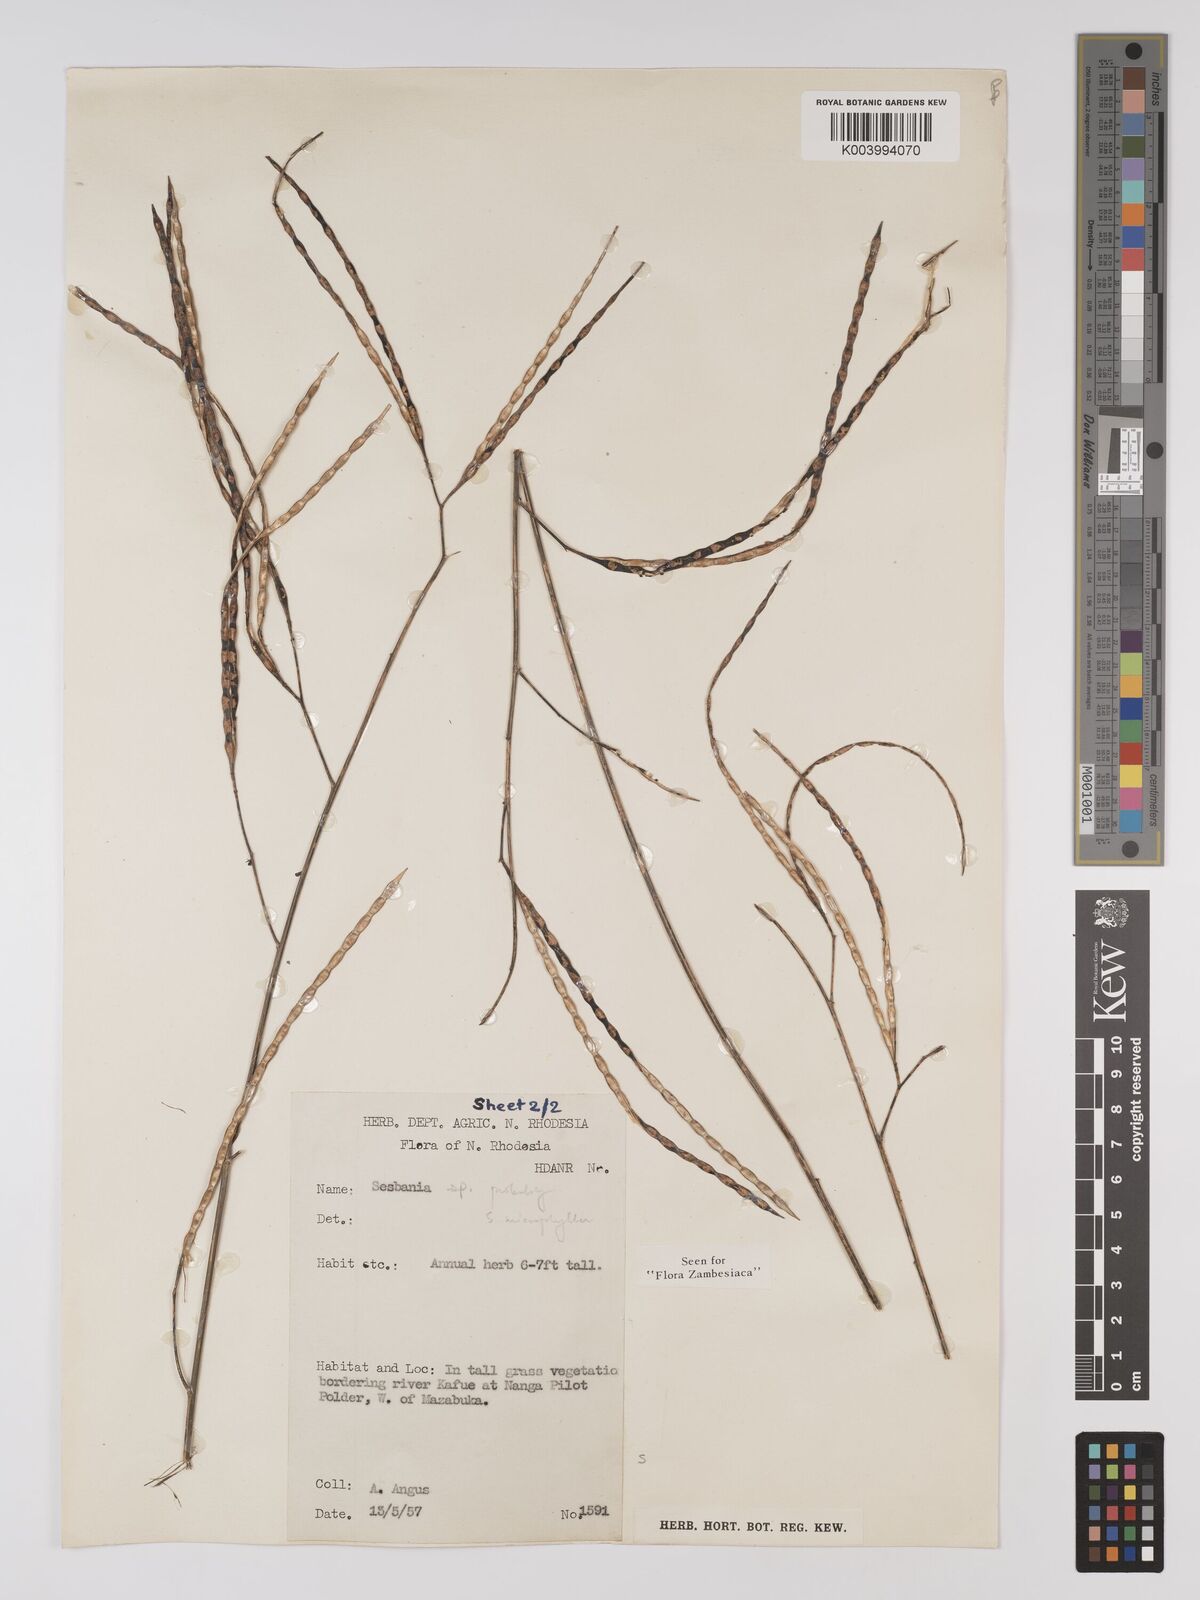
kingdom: Plantae
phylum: Tracheophyta
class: Magnoliopsida
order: Fabales
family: Fabaceae
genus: Sesbania
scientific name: Sesbania microphylla
